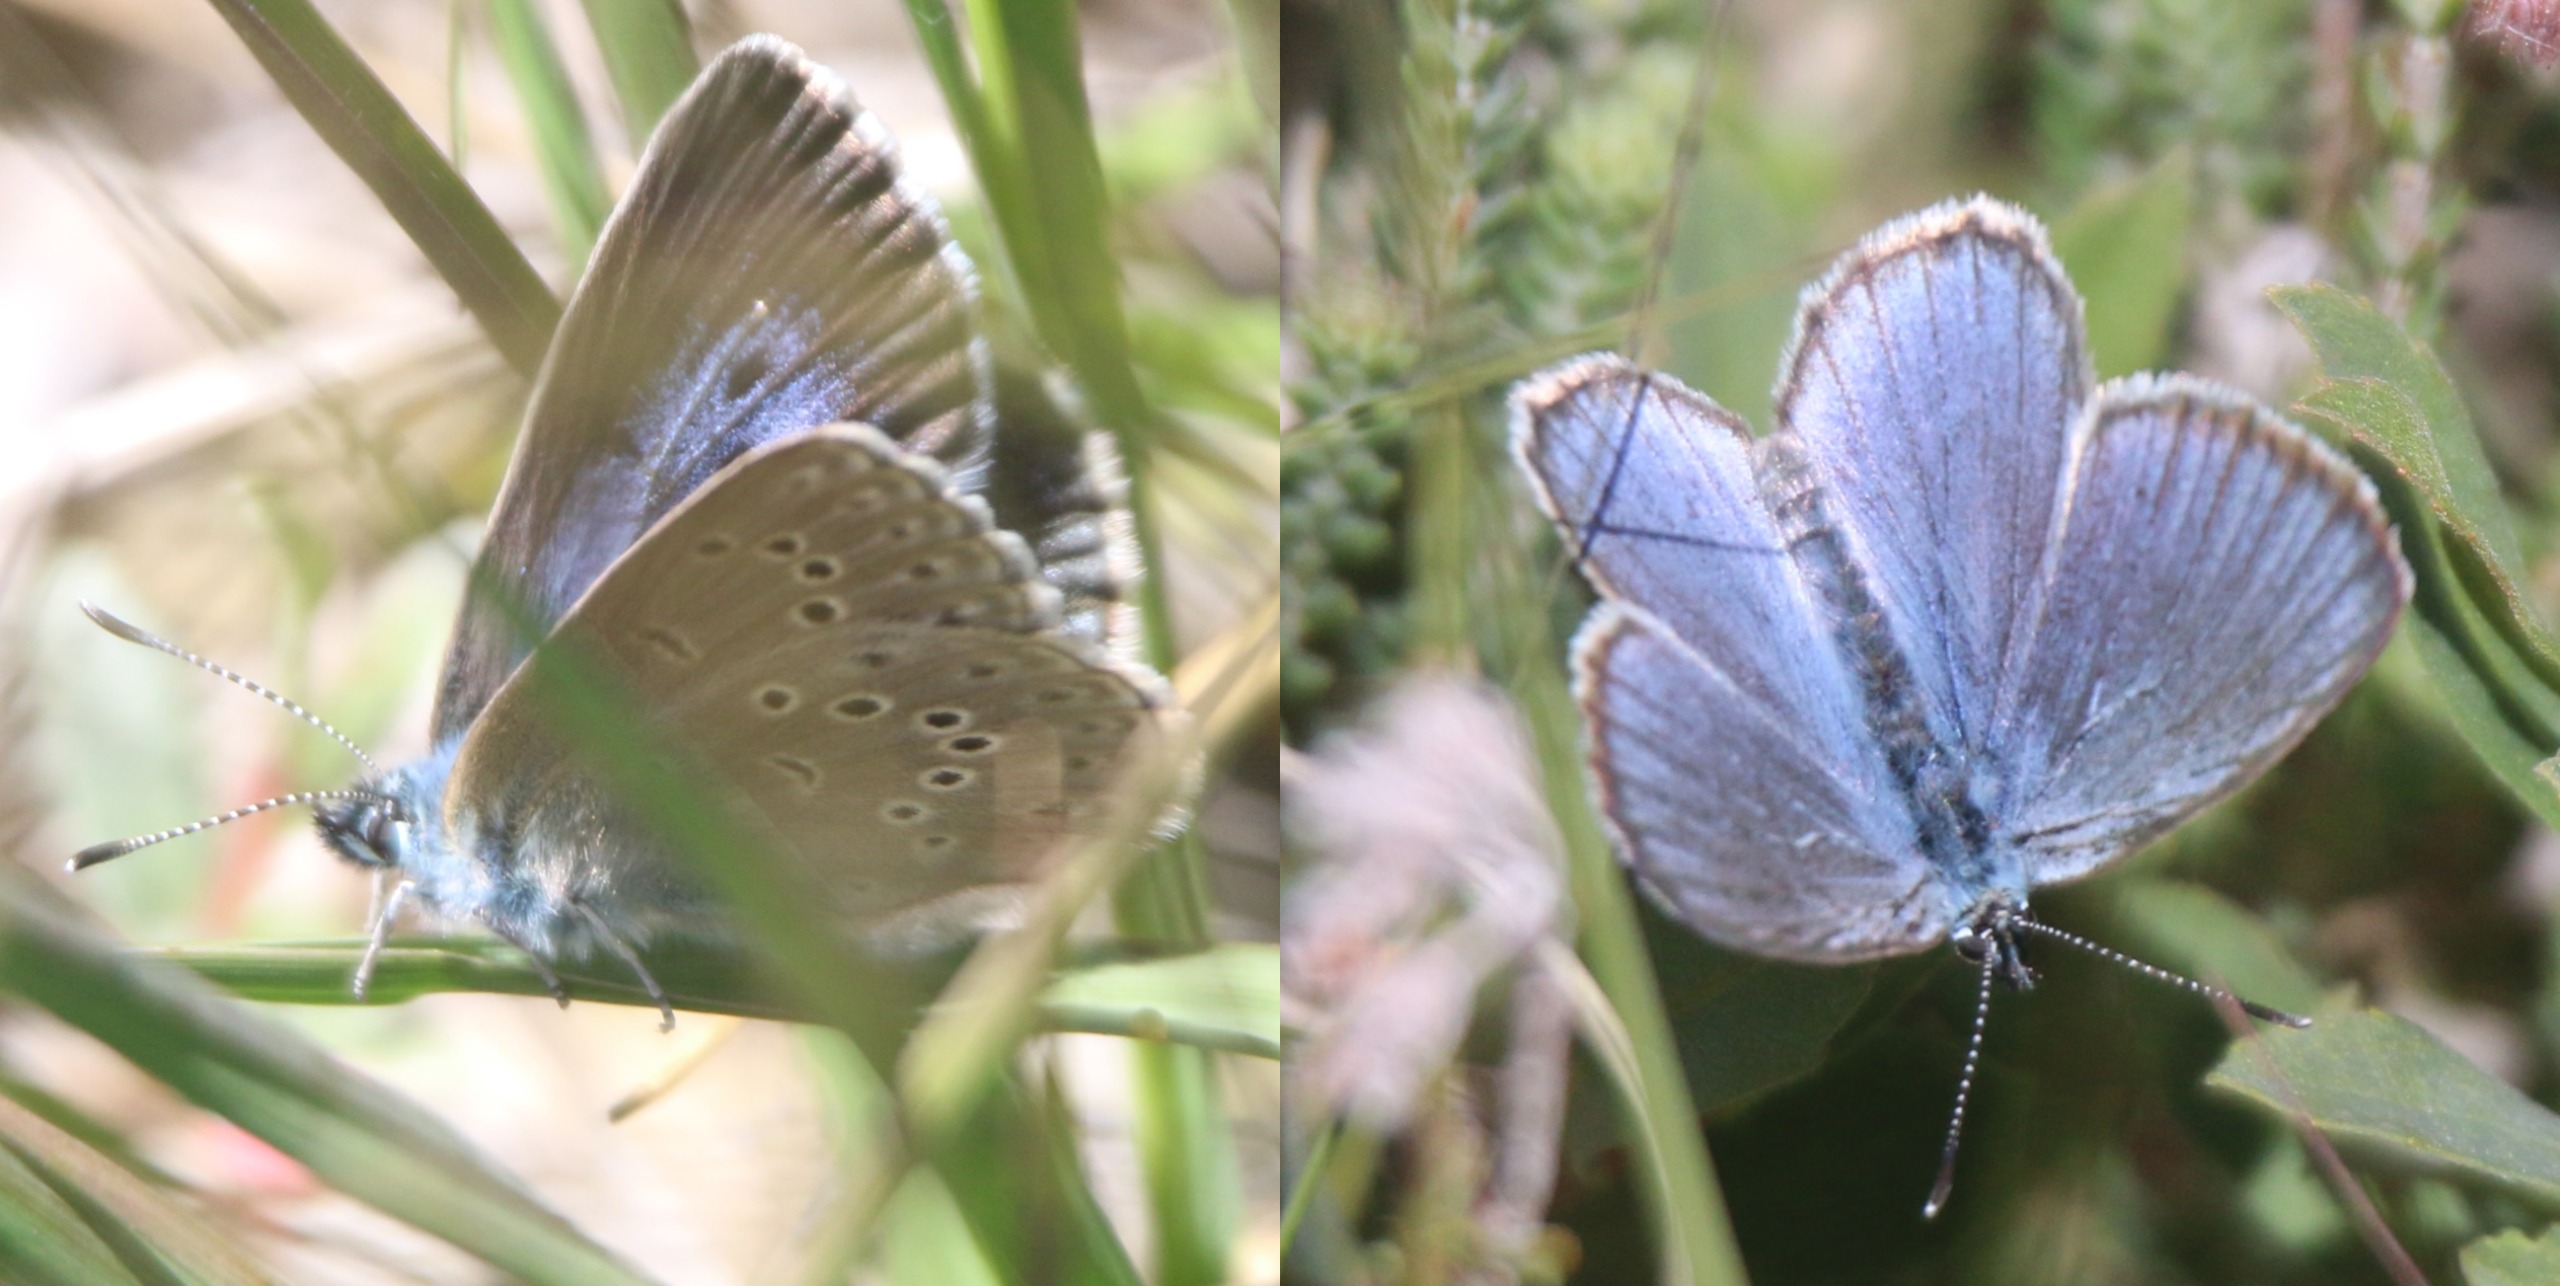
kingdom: Animalia
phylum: Arthropoda
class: Insecta
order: Lepidoptera
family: Lycaenidae
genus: Maculinea
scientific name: Maculinea alcon
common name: Ensianblåfugl
